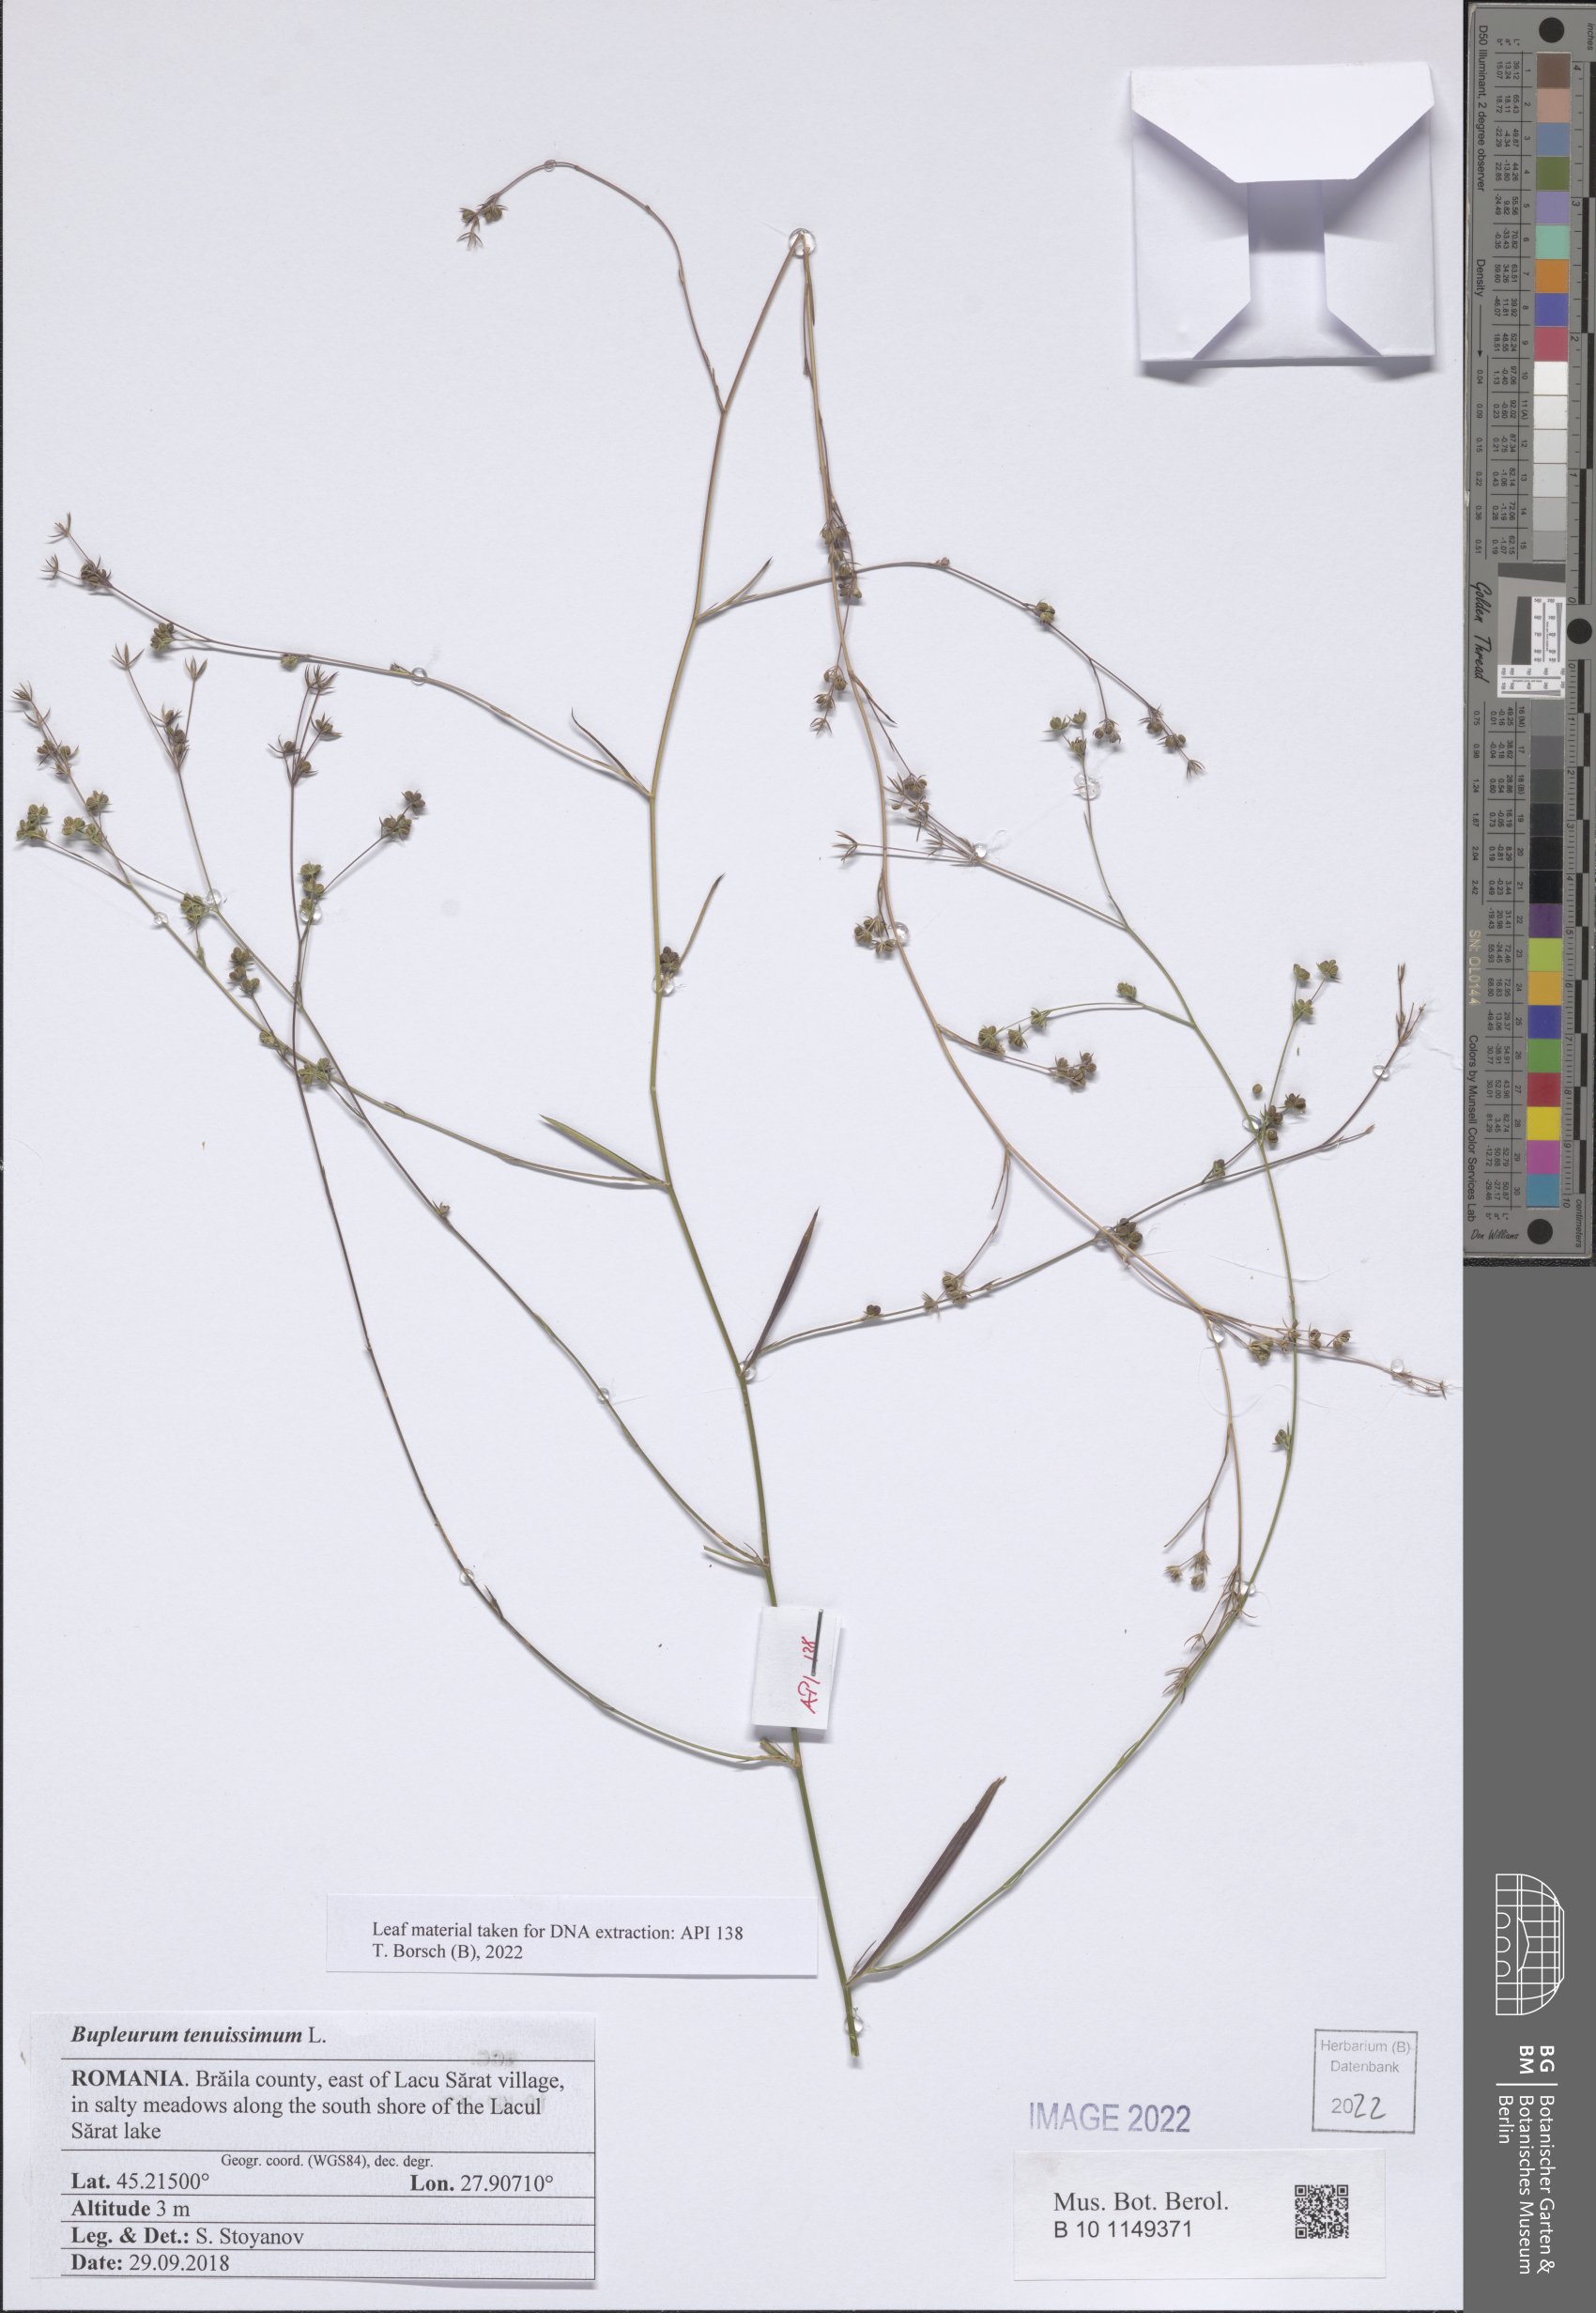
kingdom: Plantae
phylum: Tracheophyta
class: Magnoliopsida
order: Apiales
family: Apiaceae
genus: Bupleurum
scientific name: Bupleurum tenuissimum
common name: Slender hare's-ear
